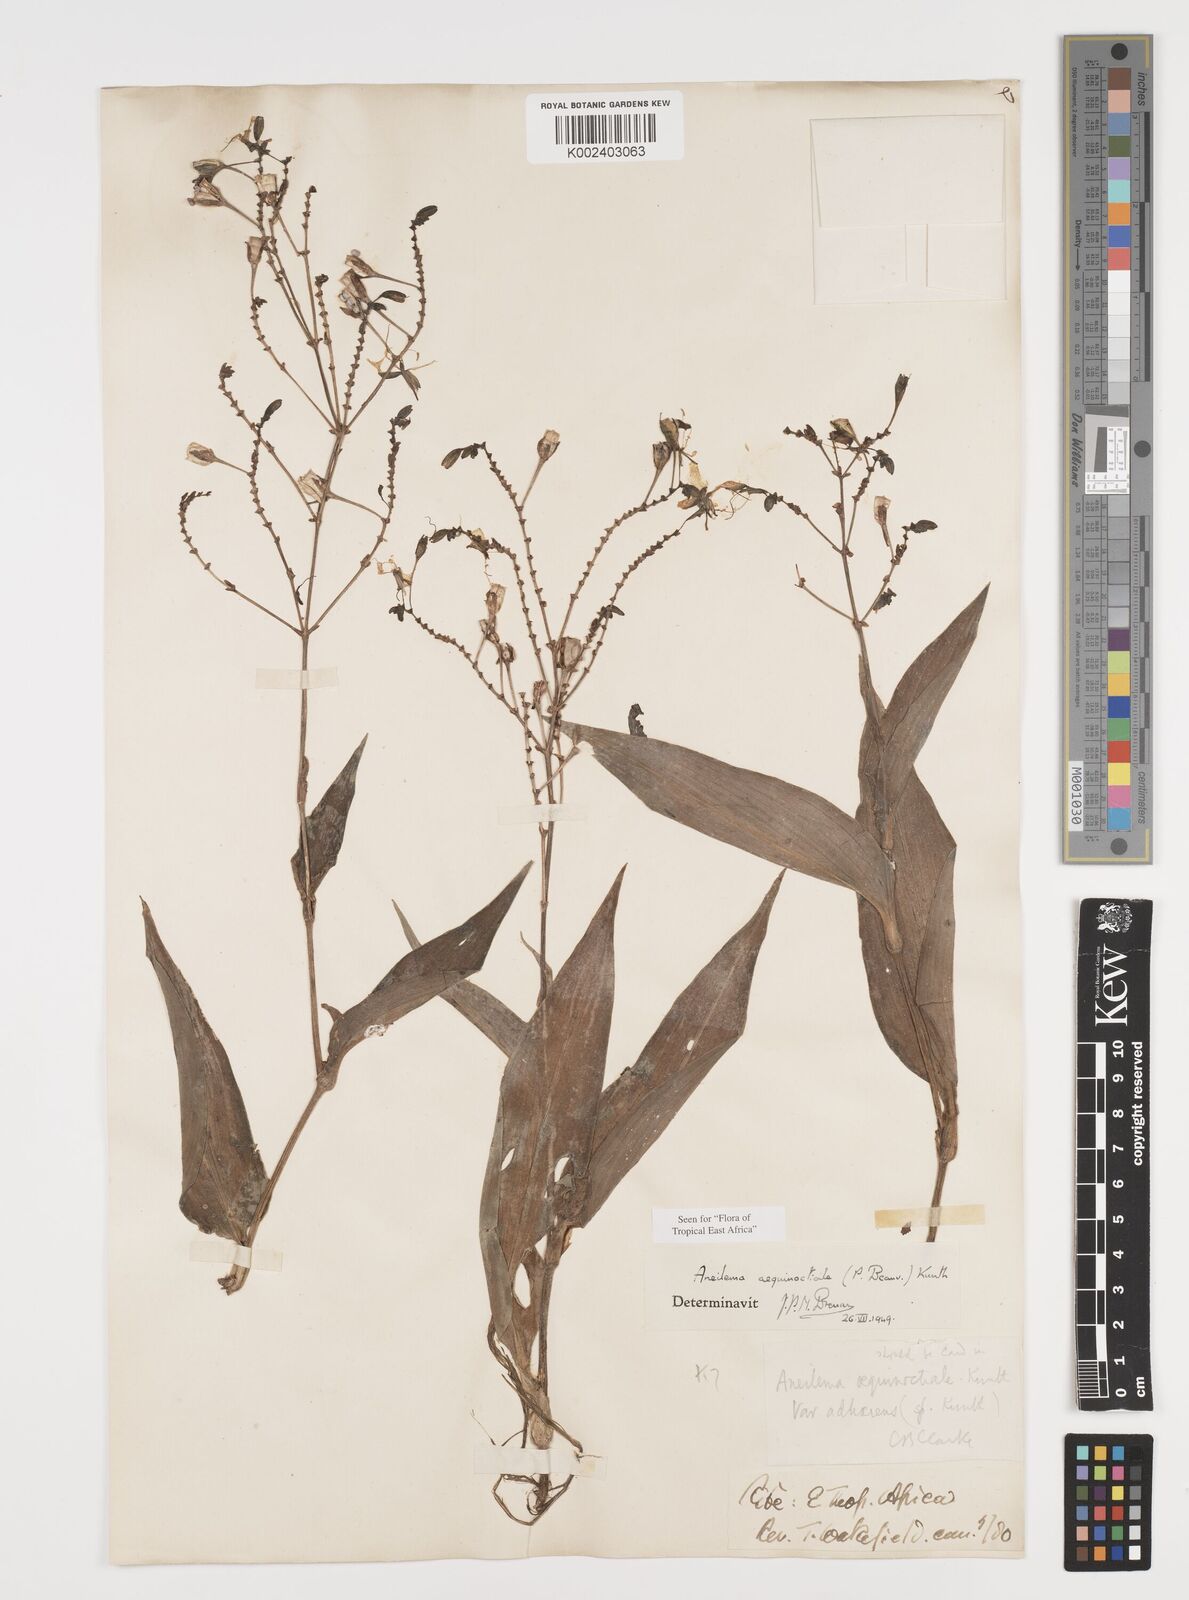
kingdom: Plantae
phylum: Tracheophyta
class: Liliopsida
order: Commelinales
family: Commelinaceae
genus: Aneilema
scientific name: Aneilema aequinoctiale
